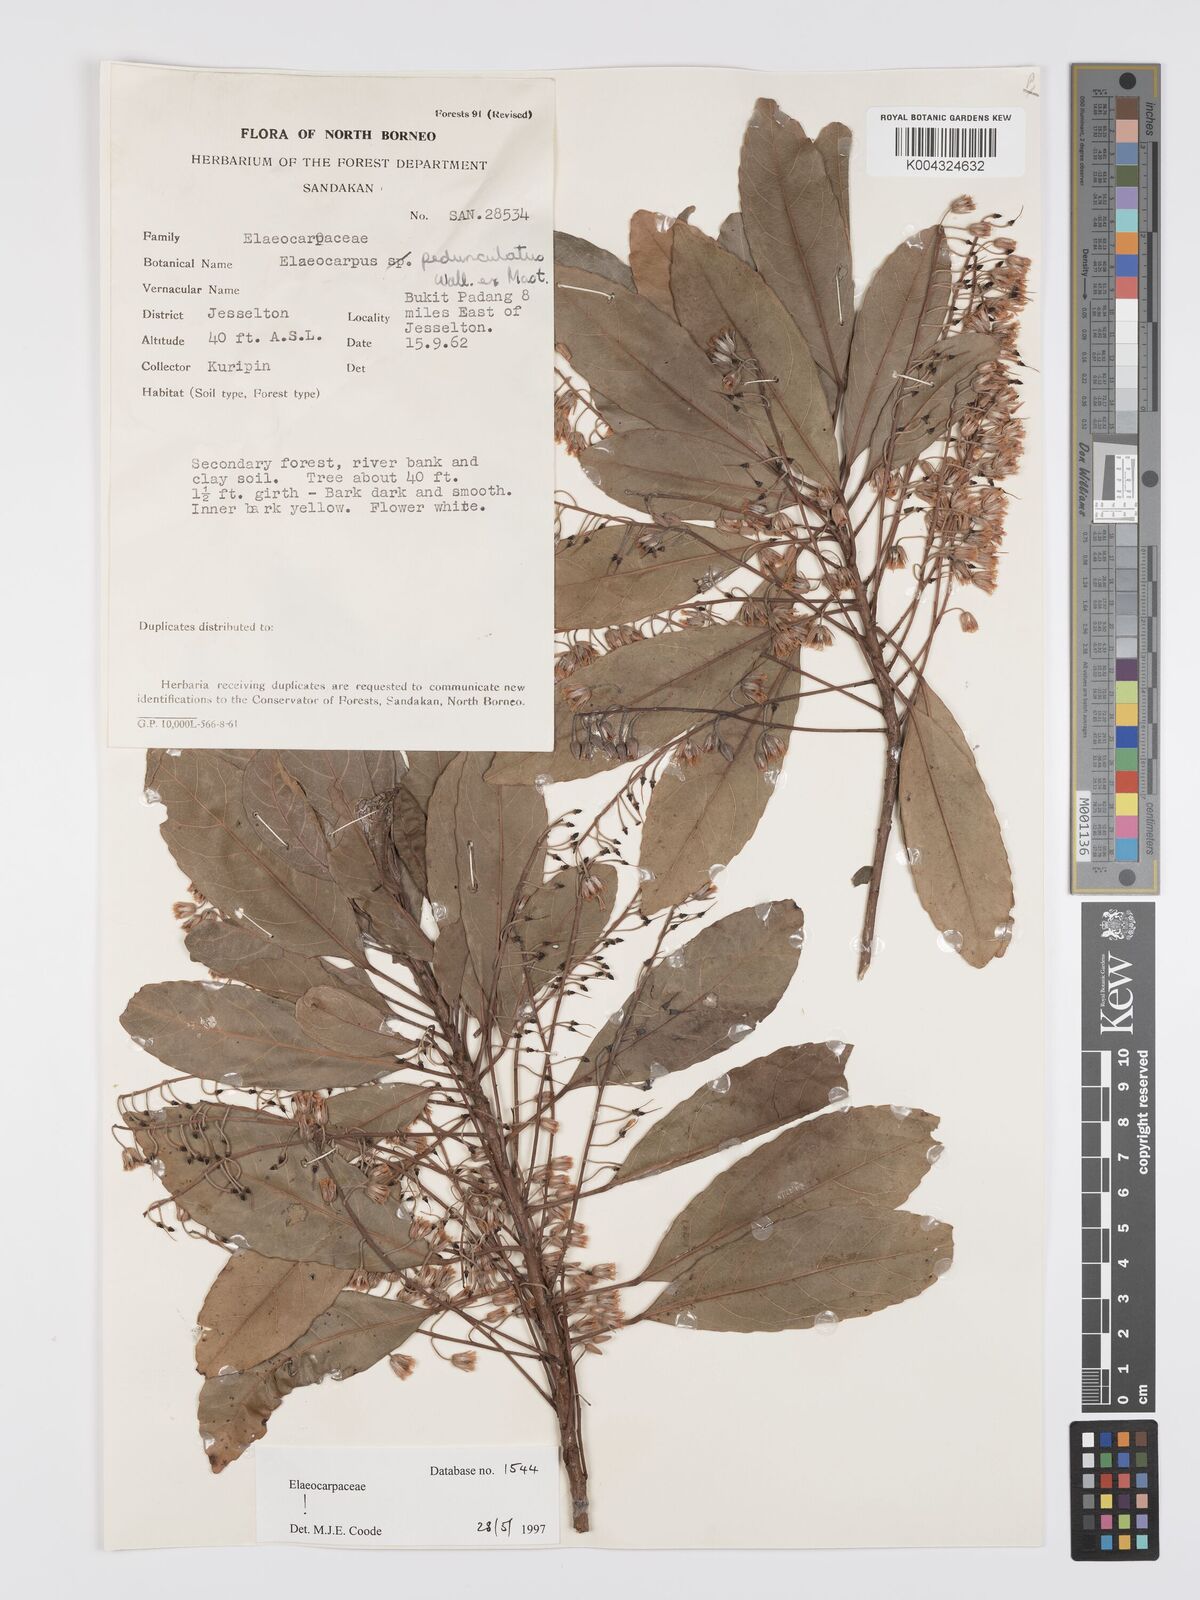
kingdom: Plantae
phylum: Tracheophyta
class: Magnoliopsida
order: Oxalidales
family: Elaeocarpaceae
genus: Elaeocarpus
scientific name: Elaeocarpus pedunculatus
